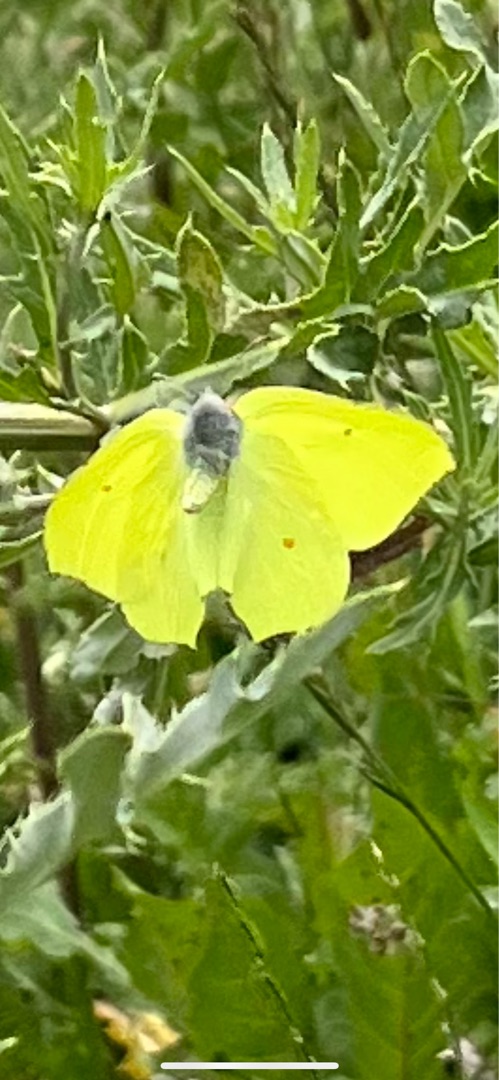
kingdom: Animalia
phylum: Arthropoda
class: Insecta
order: Lepidoptera
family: Pieridae
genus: Gonepteryx
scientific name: Gonepteryx rhamni
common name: Citronsommerfugl
